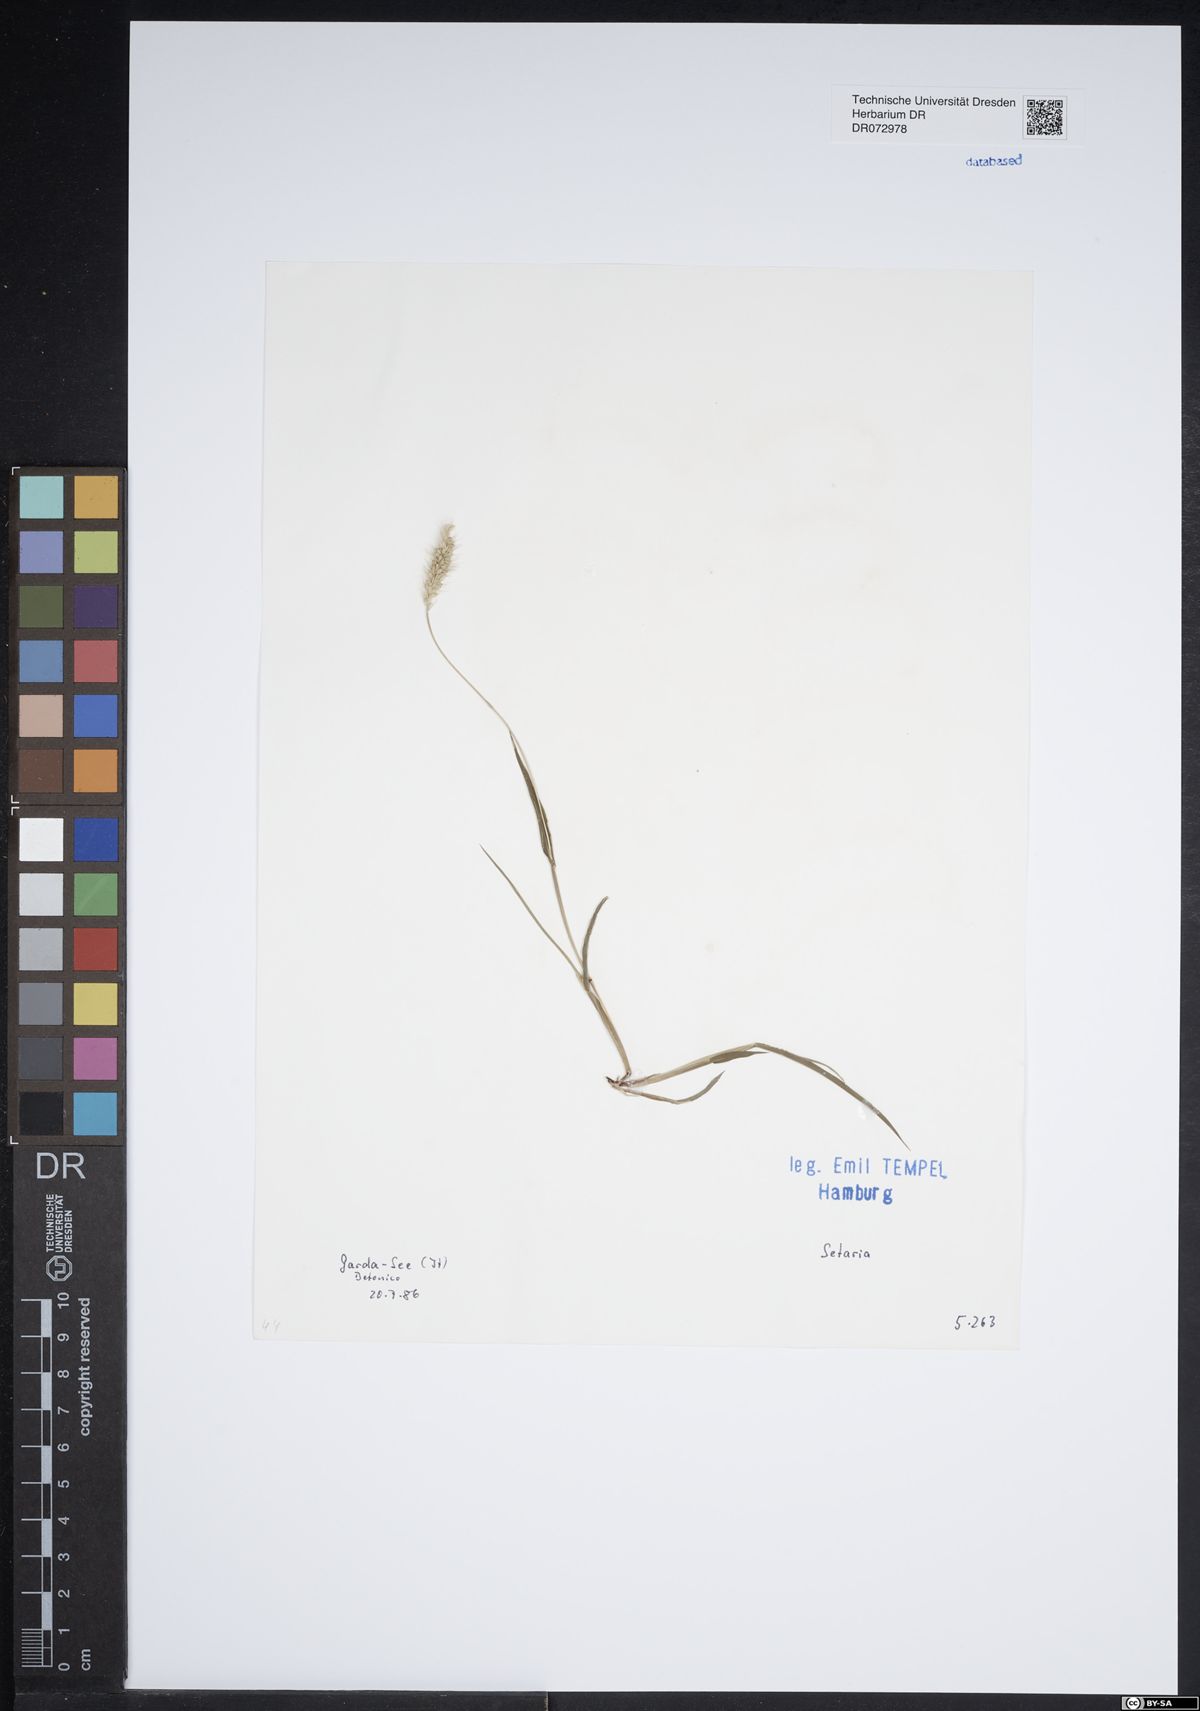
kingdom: Plantae
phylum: Tracheophyta
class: Liliopsida
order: Poales
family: Poaceae
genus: Setaria
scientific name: Setaria
